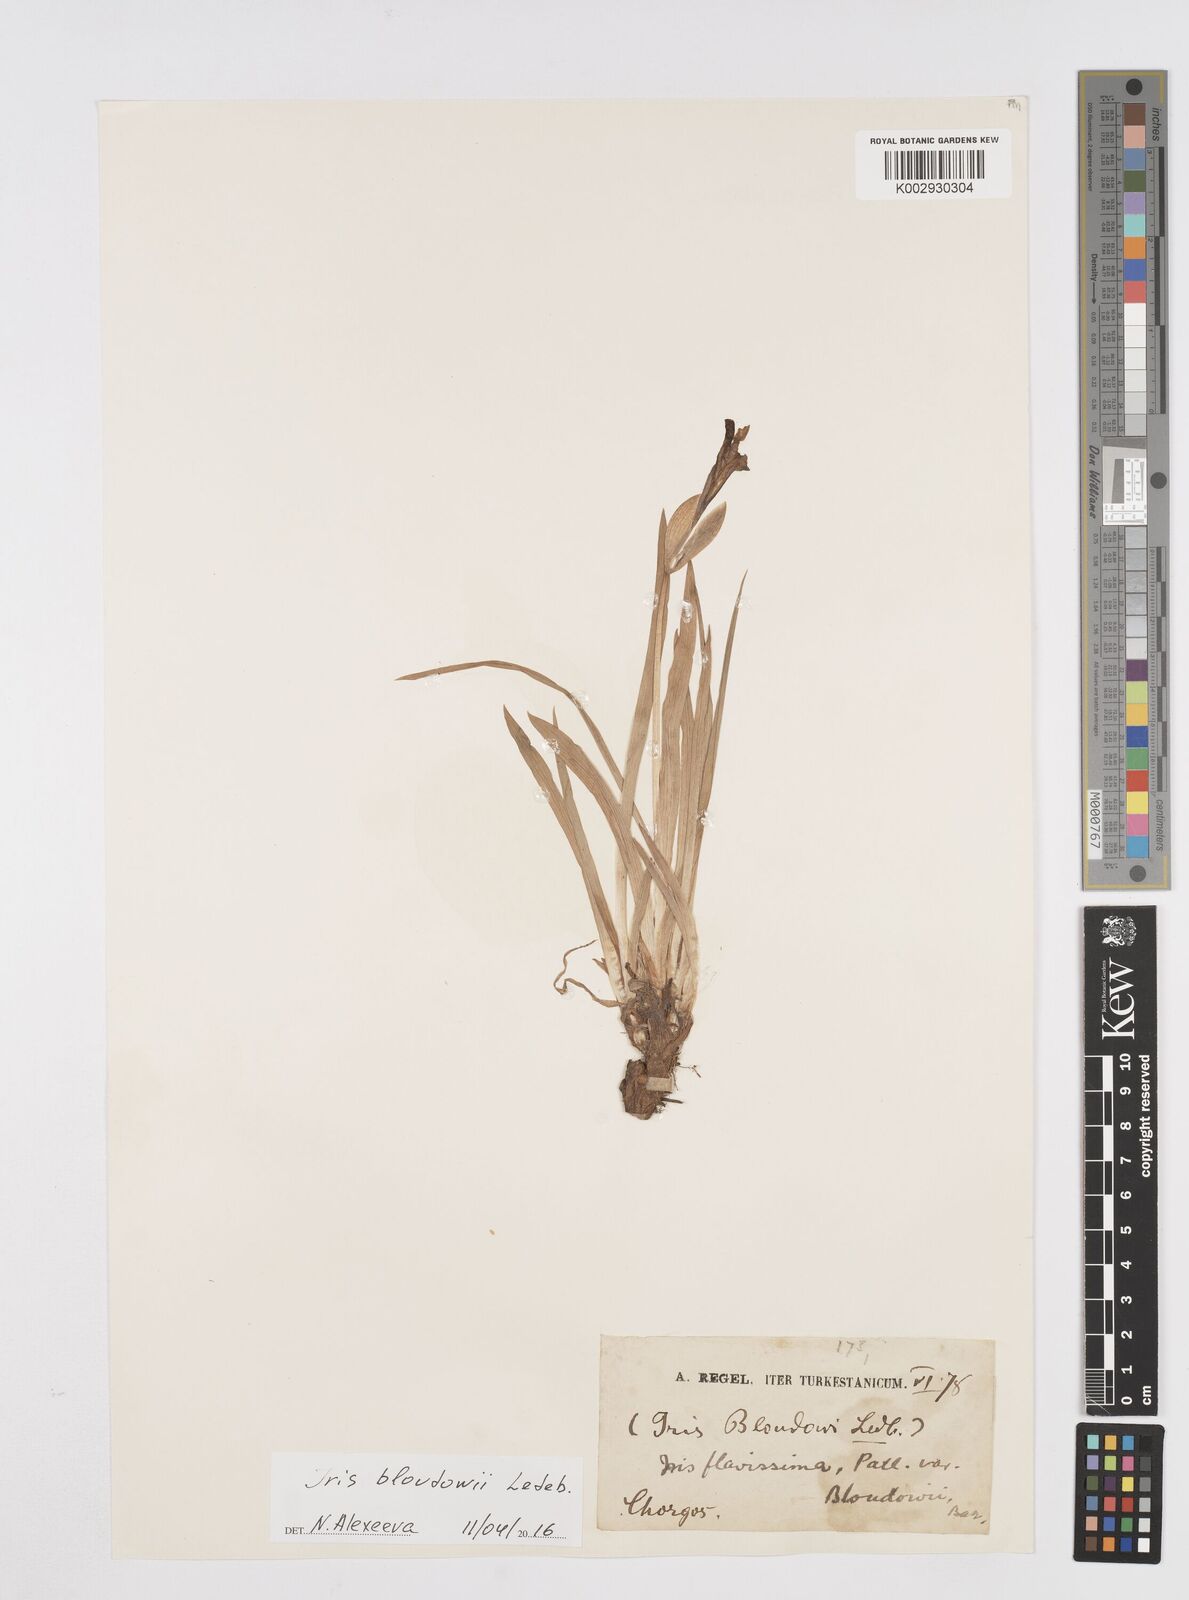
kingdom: Plantae
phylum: Tracheophyta
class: Liliopsida
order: Asparagales
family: Iridaceae
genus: Iris
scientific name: Iris humilis
